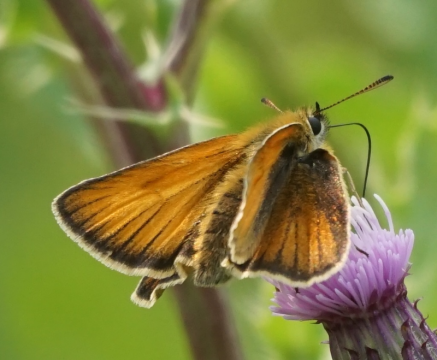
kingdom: Animalia
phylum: Arthropoda
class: Insecta
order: Lepidoptera
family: Hesperiidae
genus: Thymelicus
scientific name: Thymelicus lineola
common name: European Skipper
